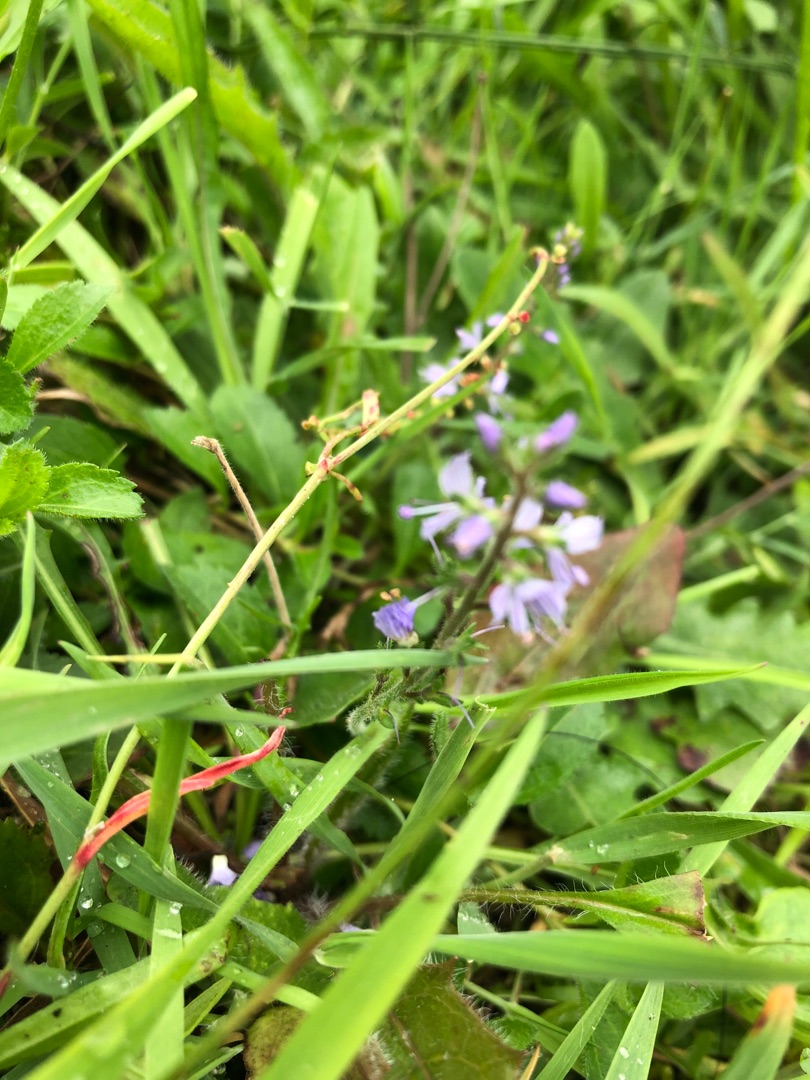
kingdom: Plantae
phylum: Tracheophyta
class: Magnoliopsida
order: Lamiales
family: Plantaginaceae
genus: Veronica
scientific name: Veronica officinalis
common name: Læge-ærenpris
